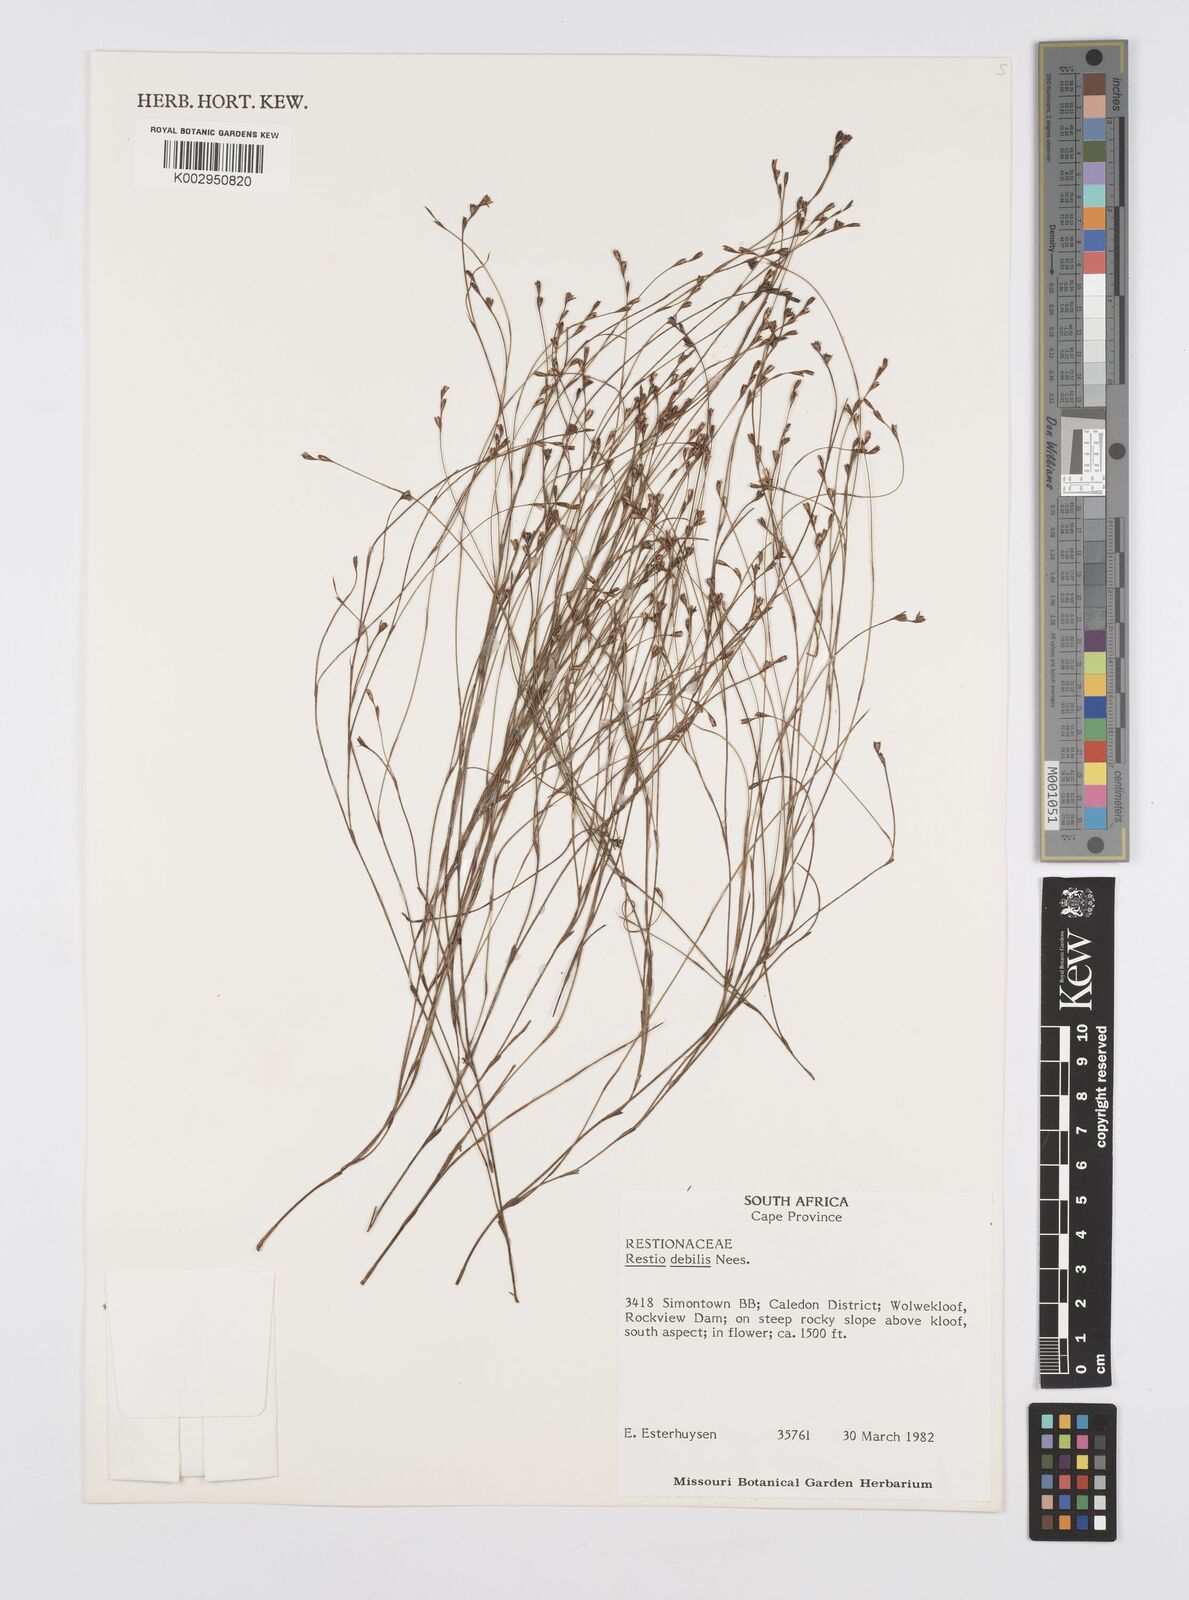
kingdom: Plantae
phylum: Tracheophyta
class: Liliopsida
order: Poales
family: Restionaceae
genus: Restio
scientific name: Restio debilis
